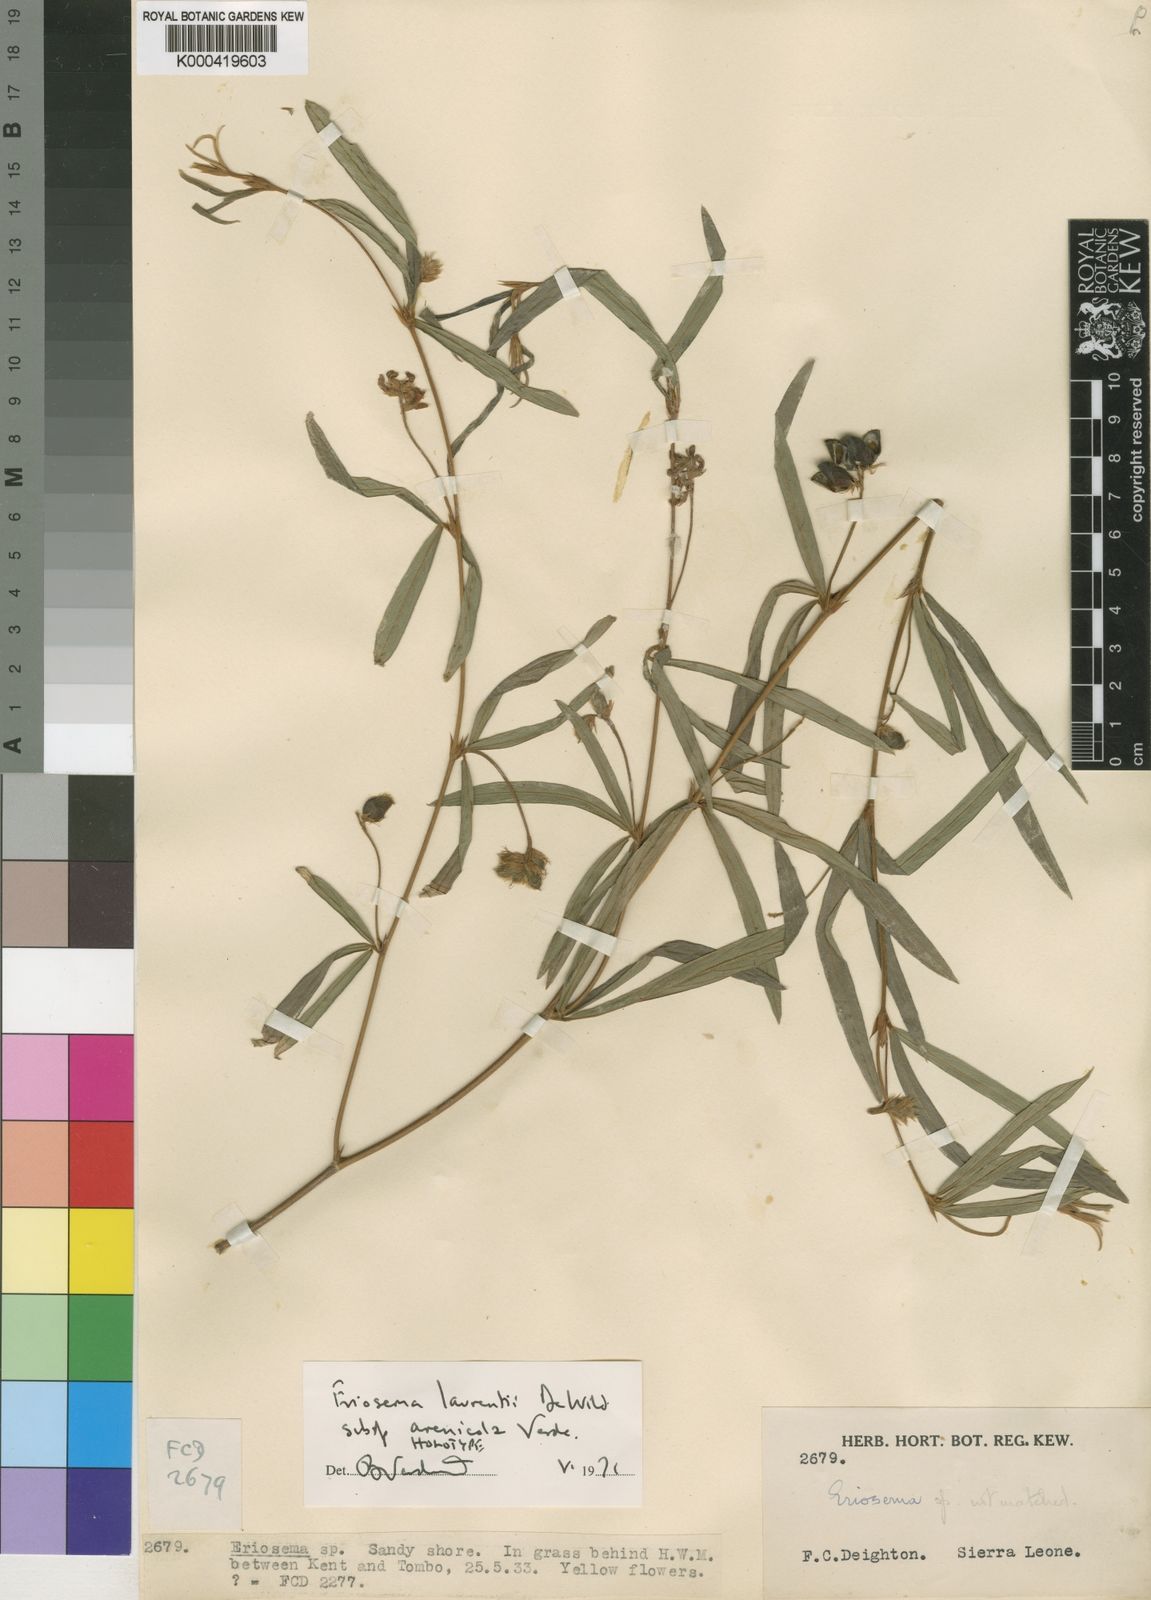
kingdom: Plantae
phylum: Tracheophyta
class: Magnoliopsida
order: Fabales
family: Fabaceae
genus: Eriosema
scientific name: Eriosema arenicola
